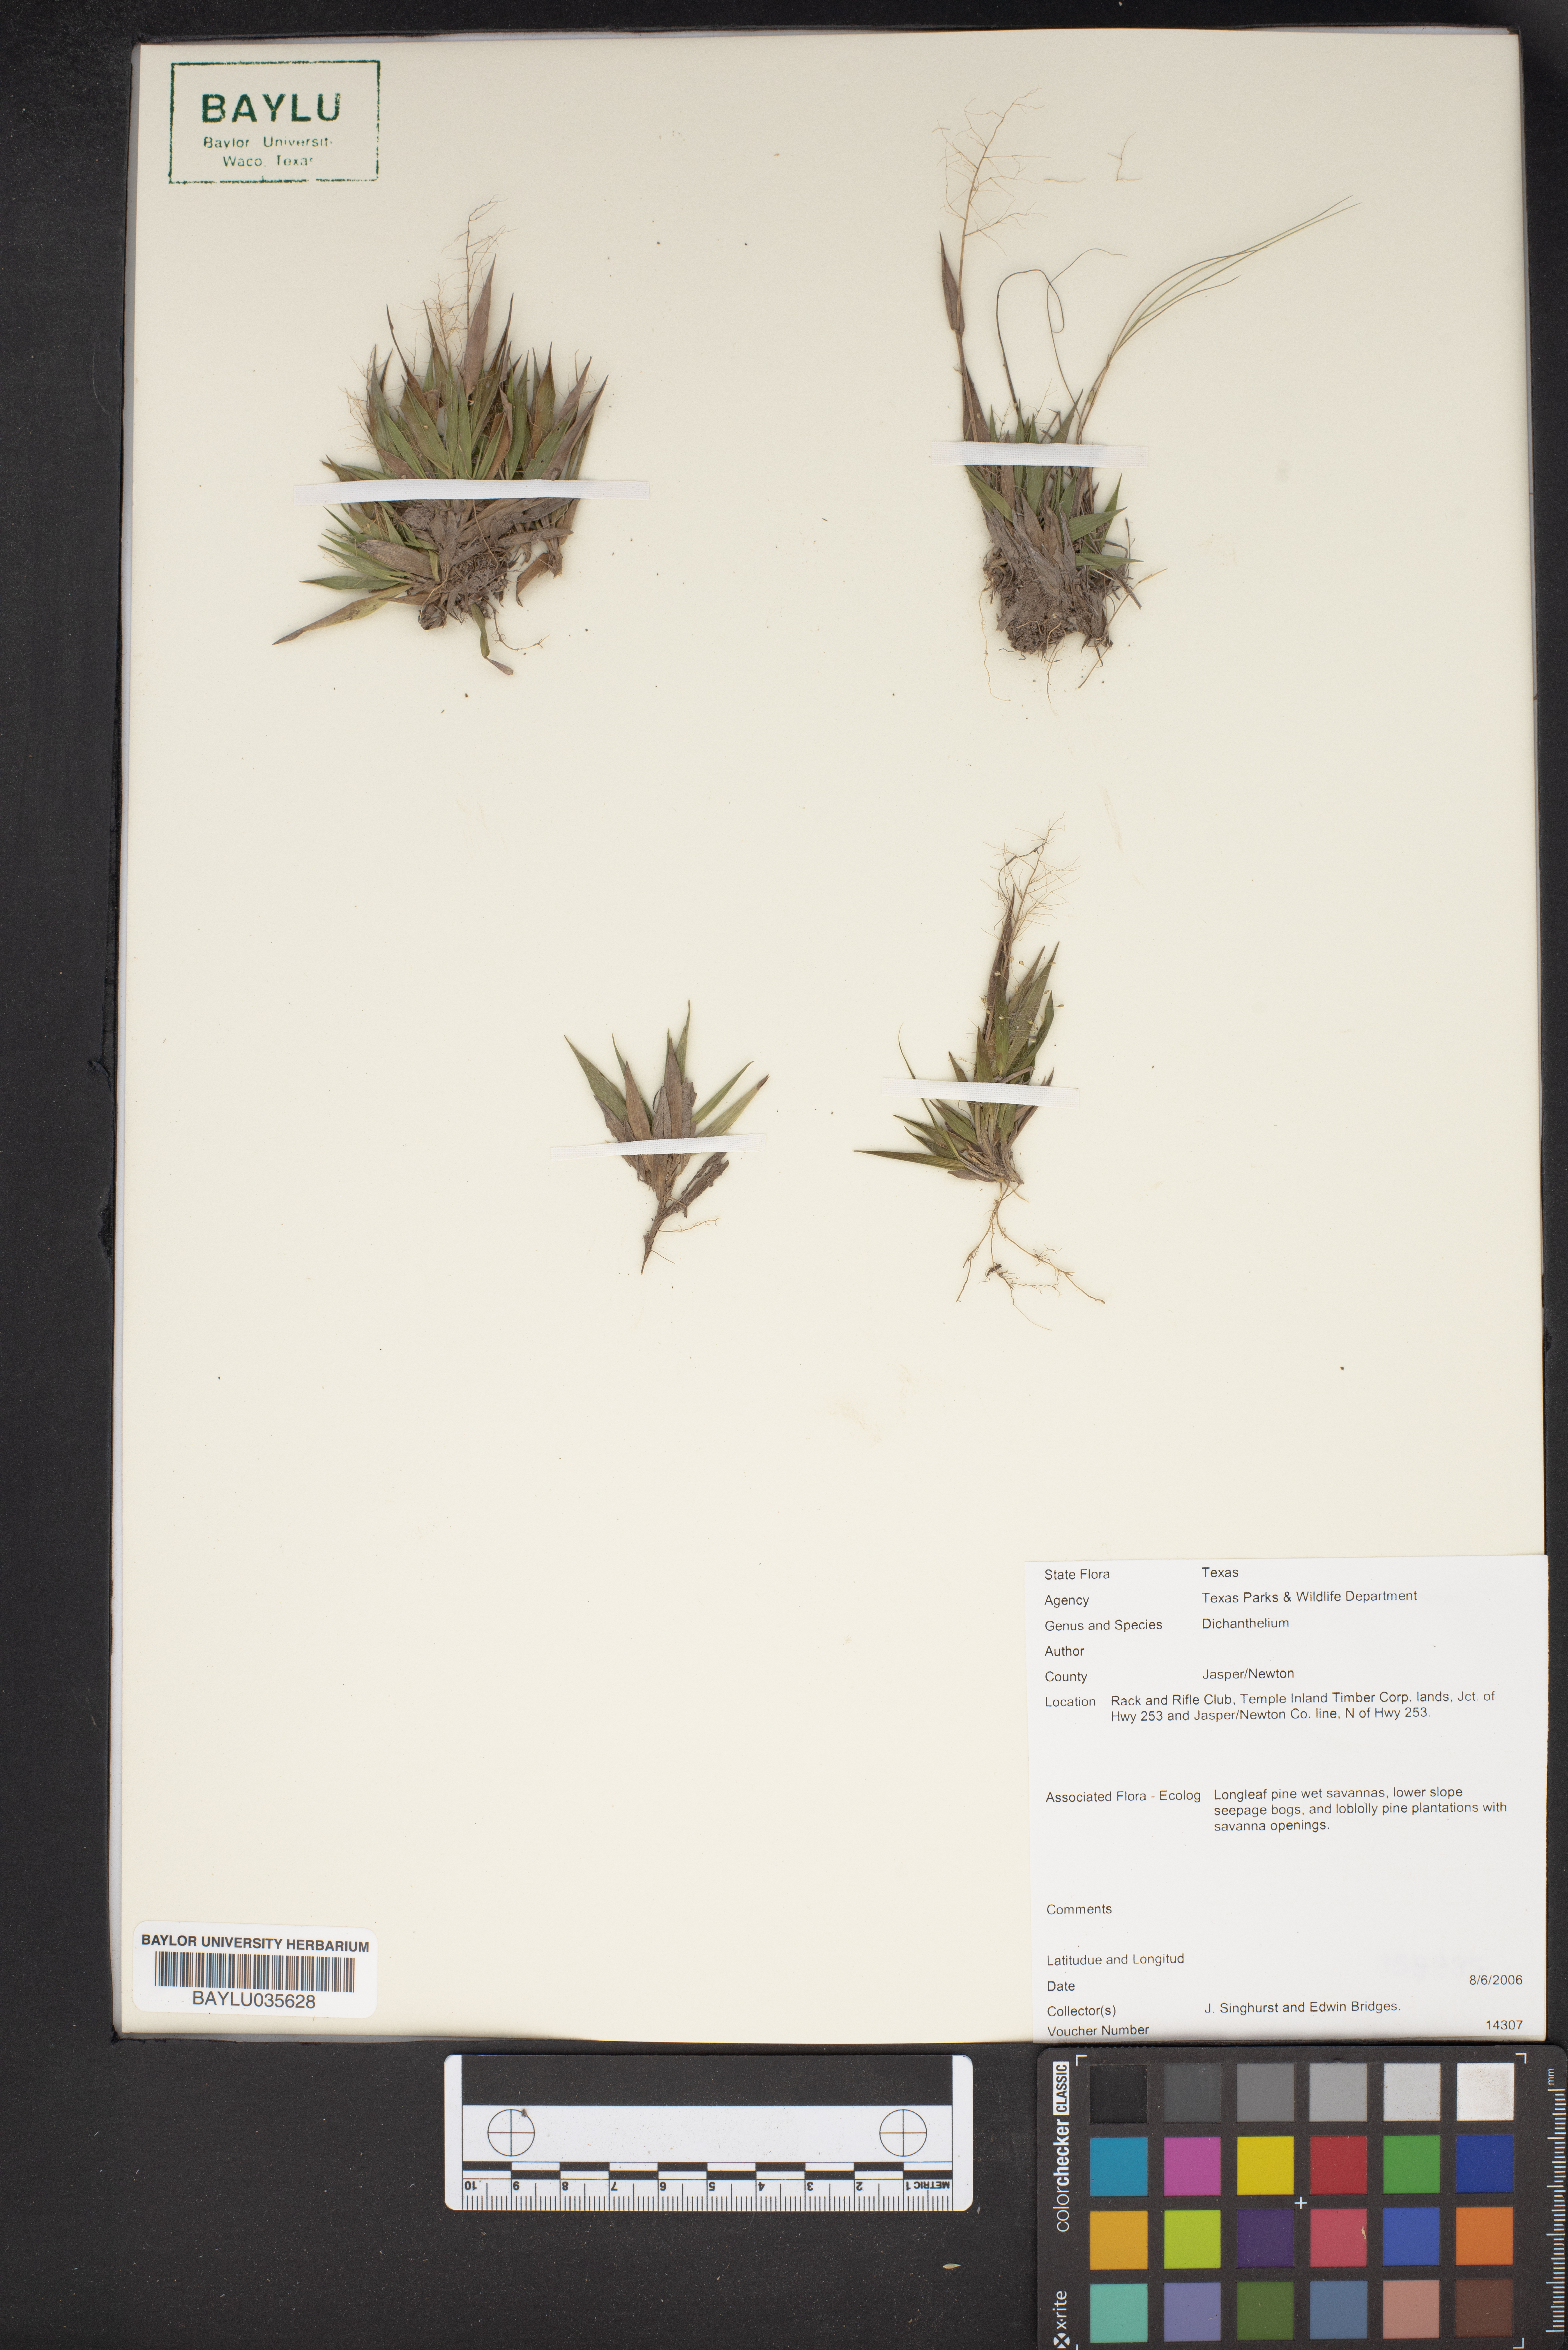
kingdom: Plantae
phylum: Tracheophyta
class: Liliopsida
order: Poales
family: Poaceae
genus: Dichanthelium
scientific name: Dichanthelium
